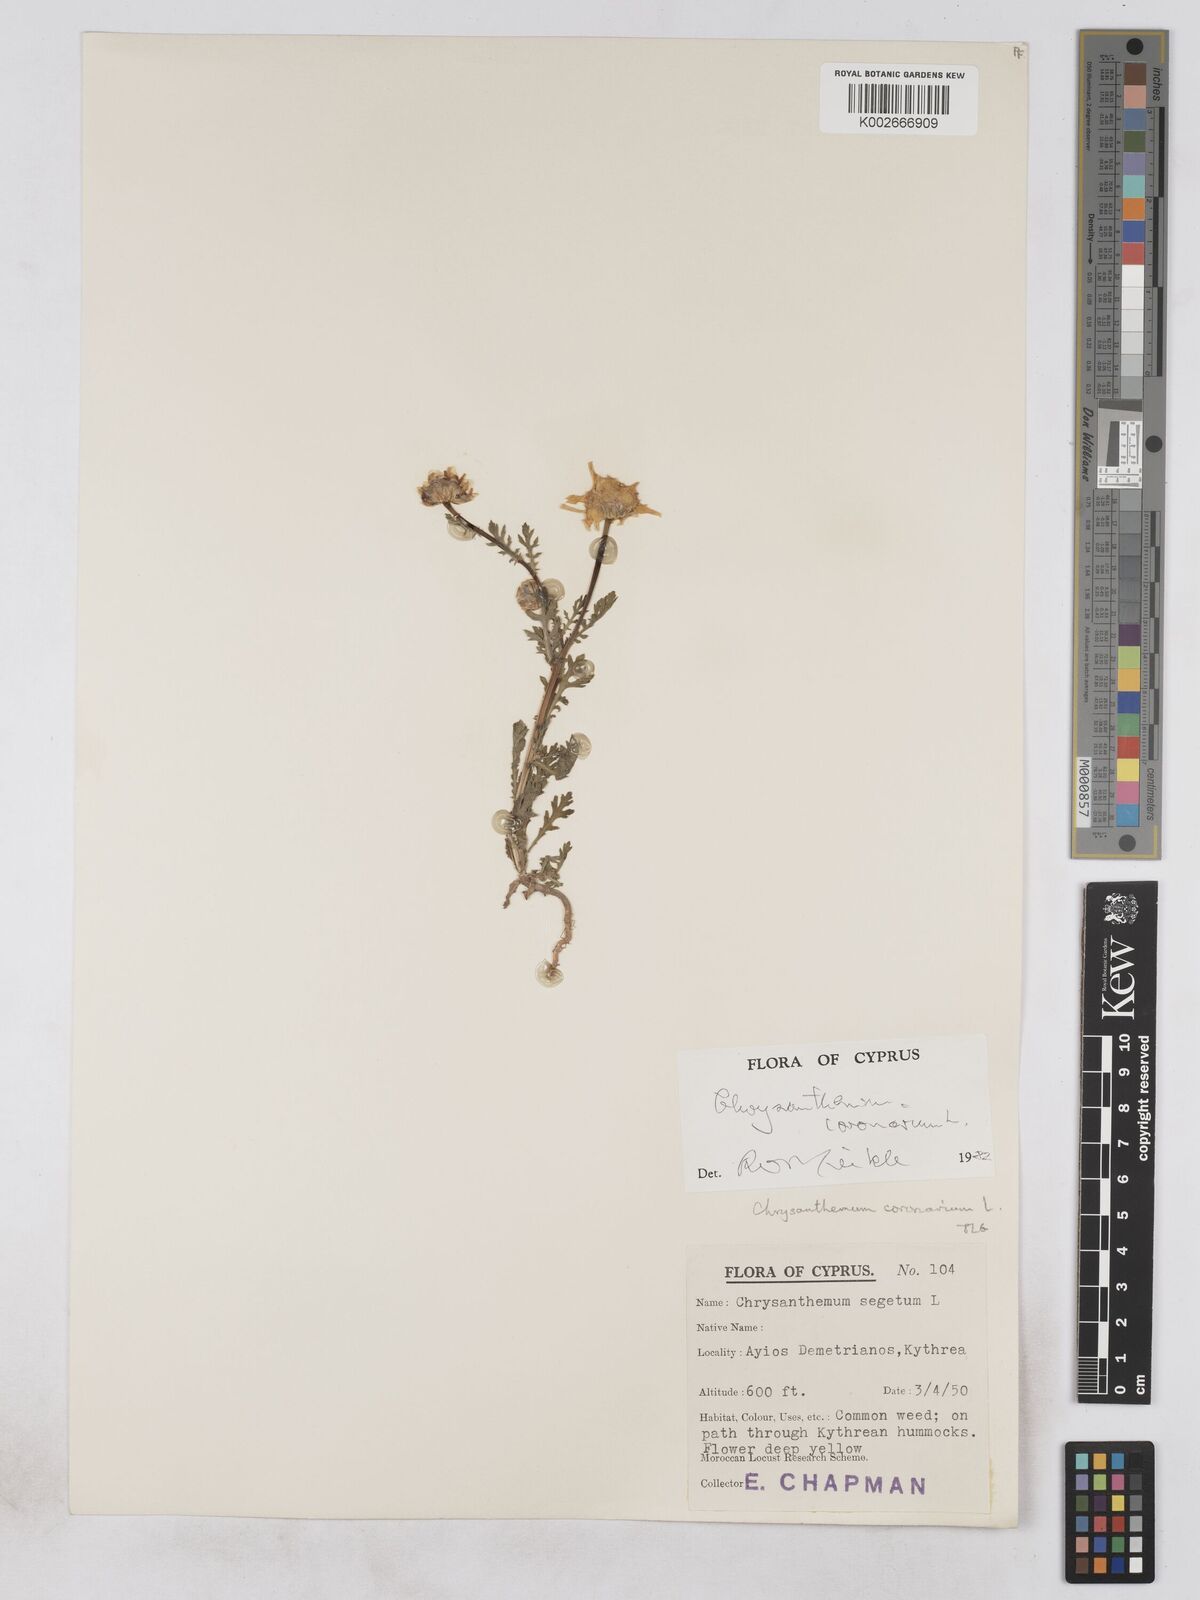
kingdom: Plantae
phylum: Tracheophyta
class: Magnoliopsida
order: Asterales
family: Asteraceae
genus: Glebionis
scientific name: Glebionis coronaria
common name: Crowndaisy
